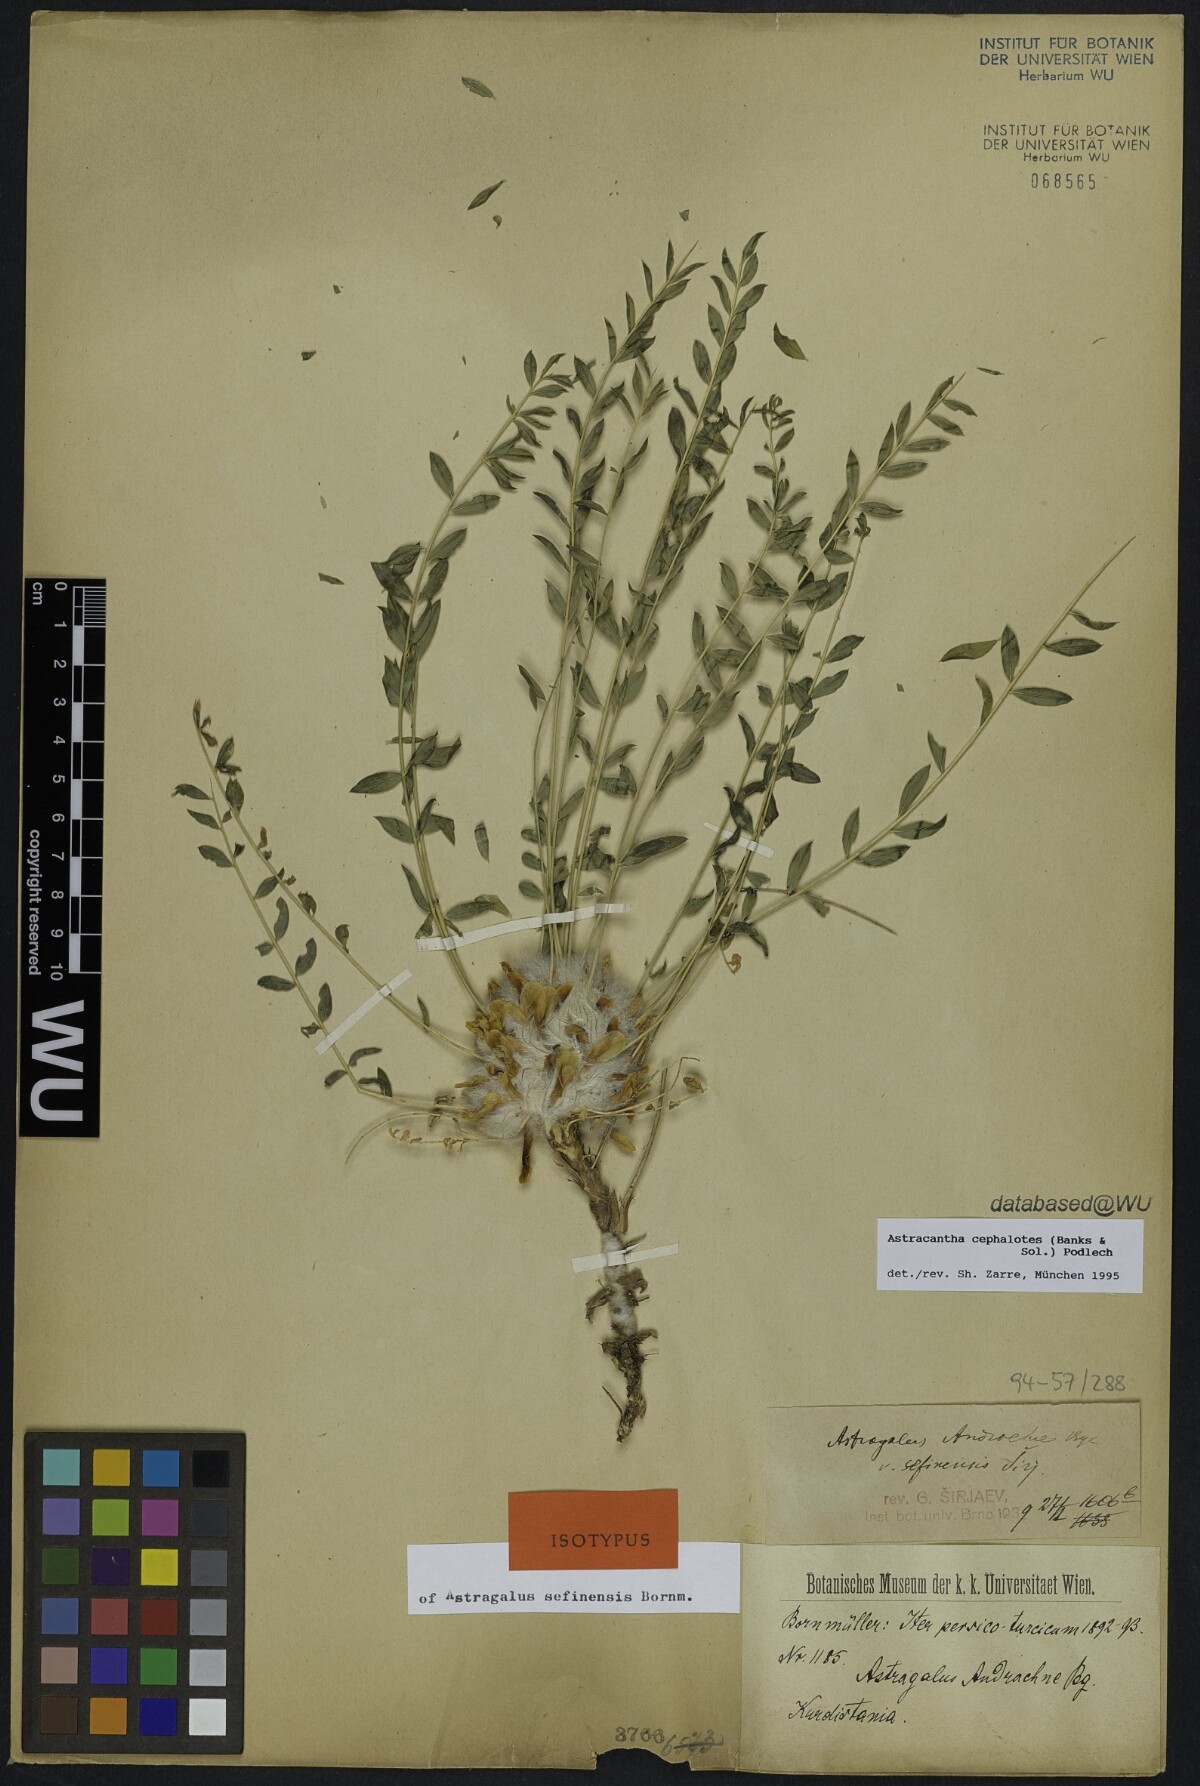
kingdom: Plantae
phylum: Tracheophyta
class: Magnoliopsida
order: Fabales
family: Fabaceae
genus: Astragalus
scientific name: Astragalus cephalotes
